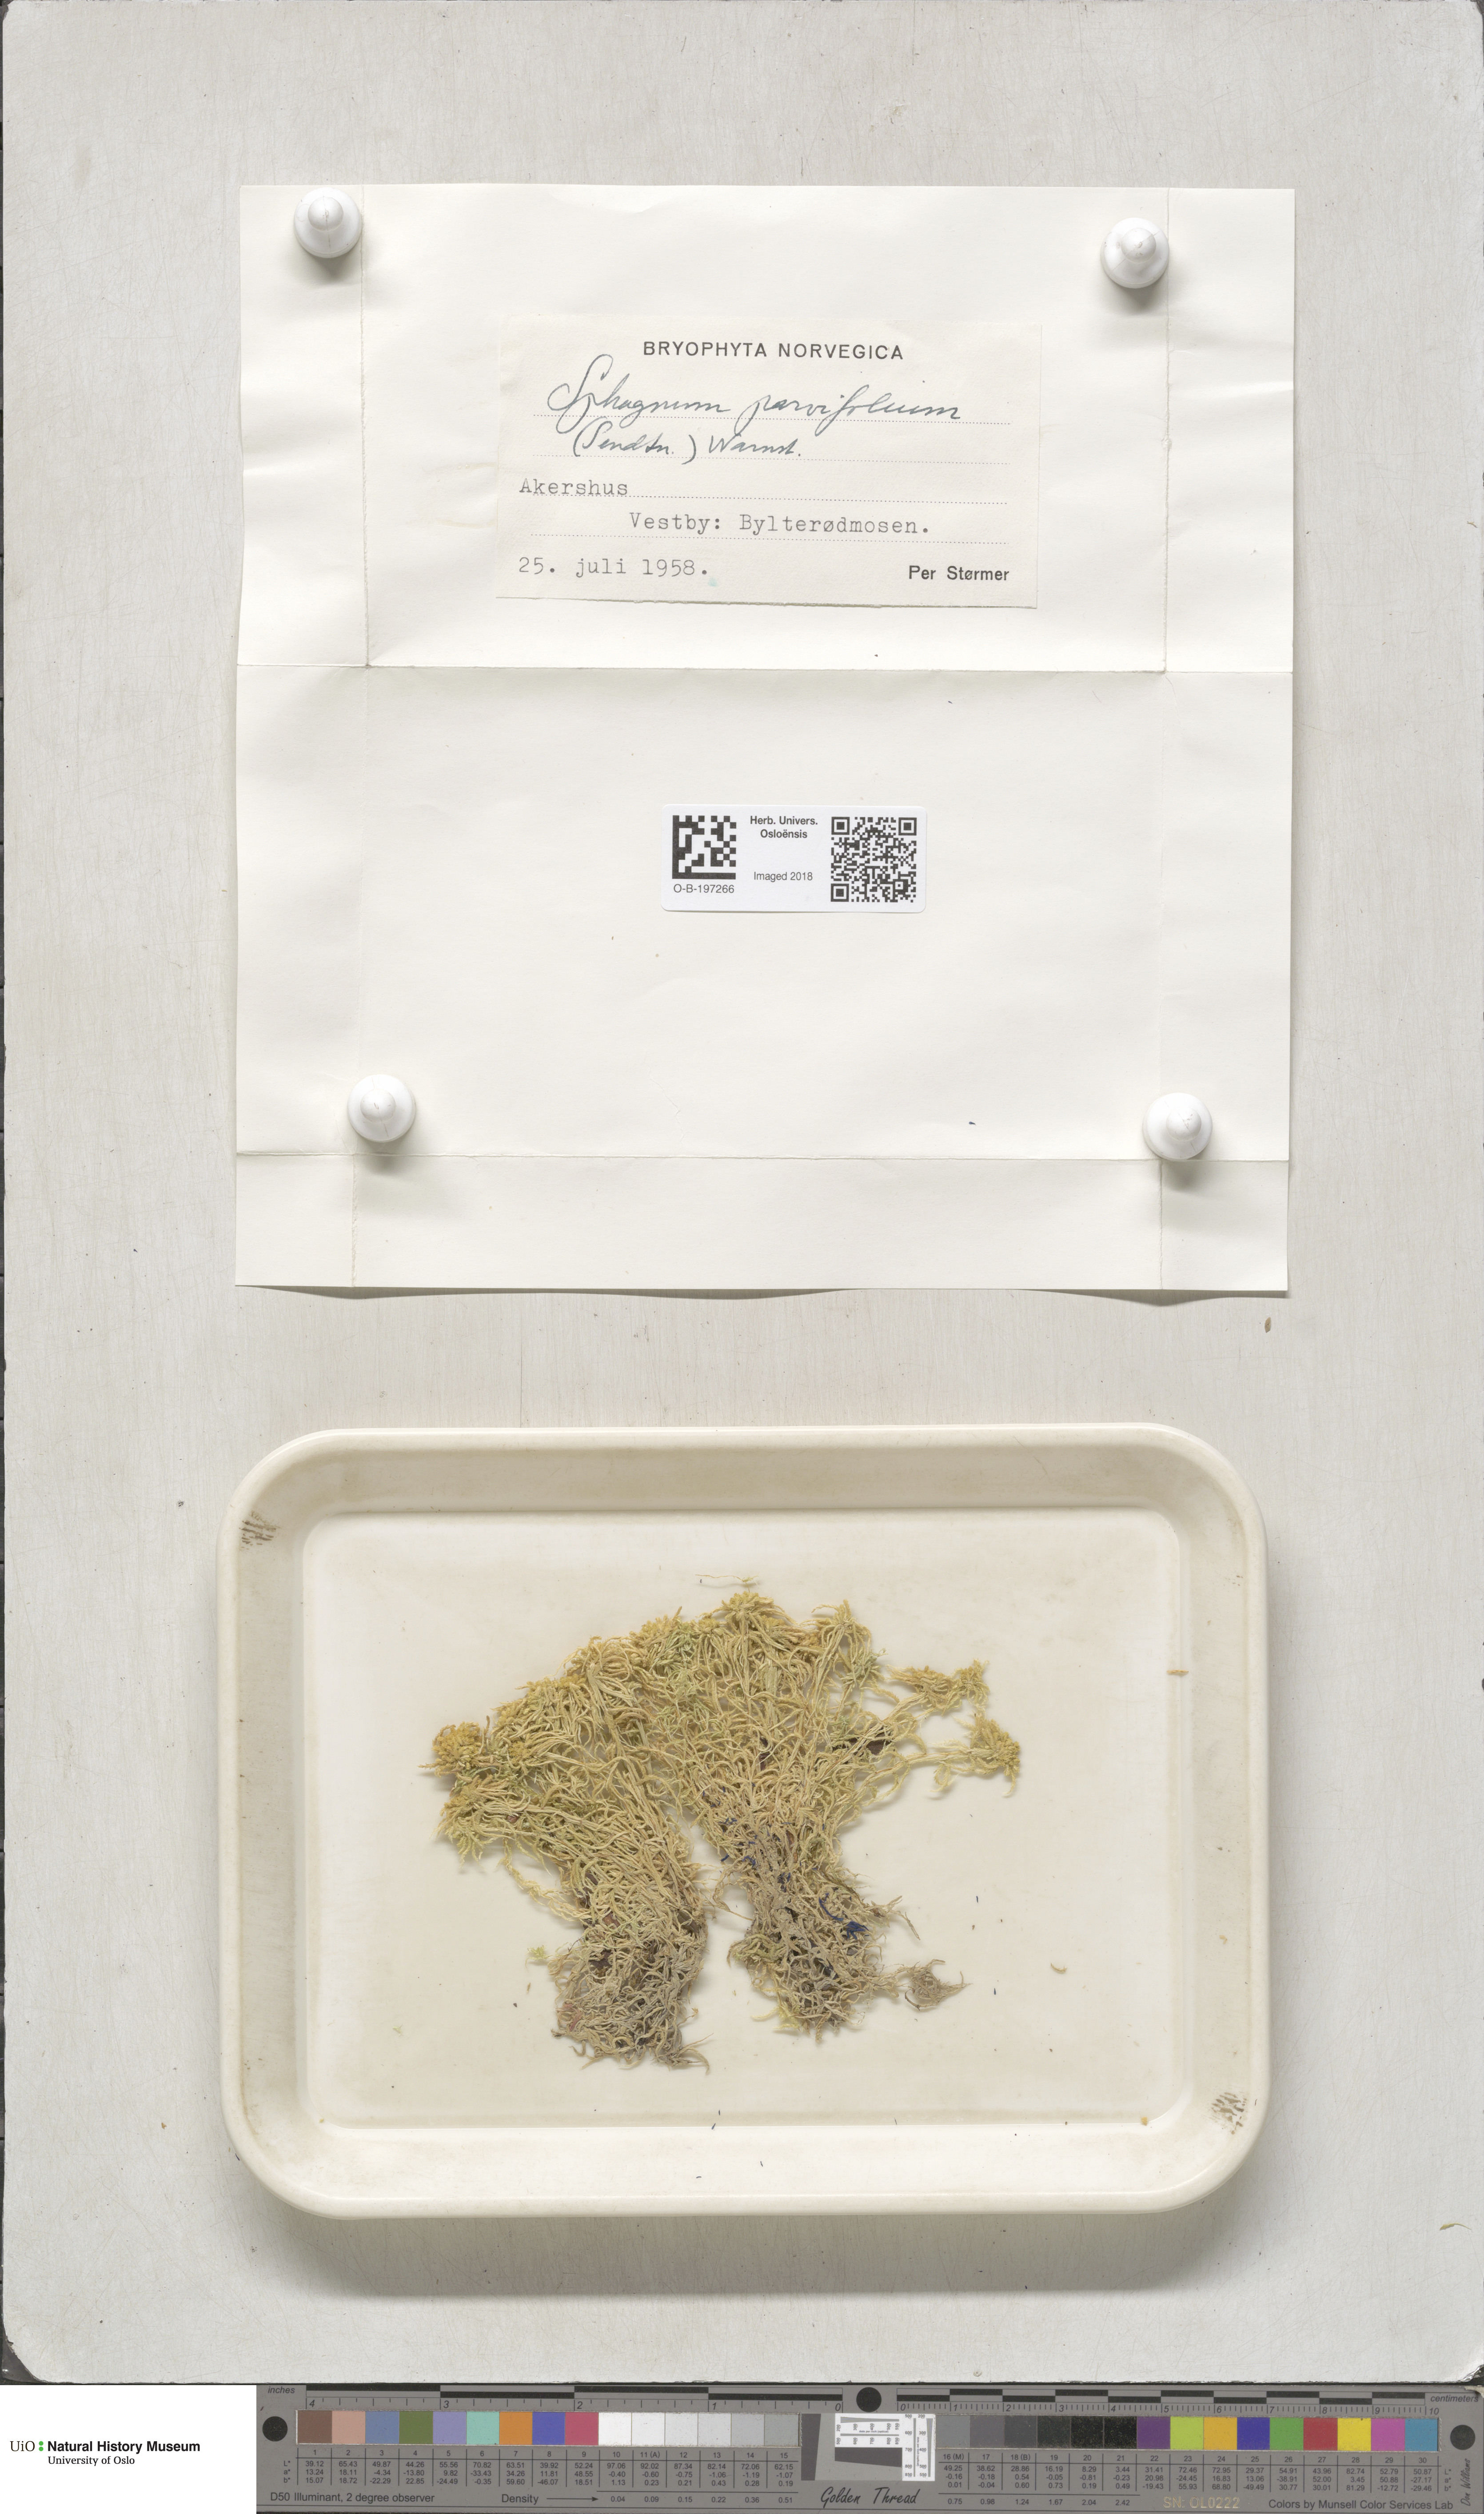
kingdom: Plantae
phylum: Bryophyta
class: Sphagnopsida
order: Sphagnales
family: Sphagnaceae
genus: Sphagnum
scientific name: Sphagnum angustifolium
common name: Narrow-leaved peat moss
